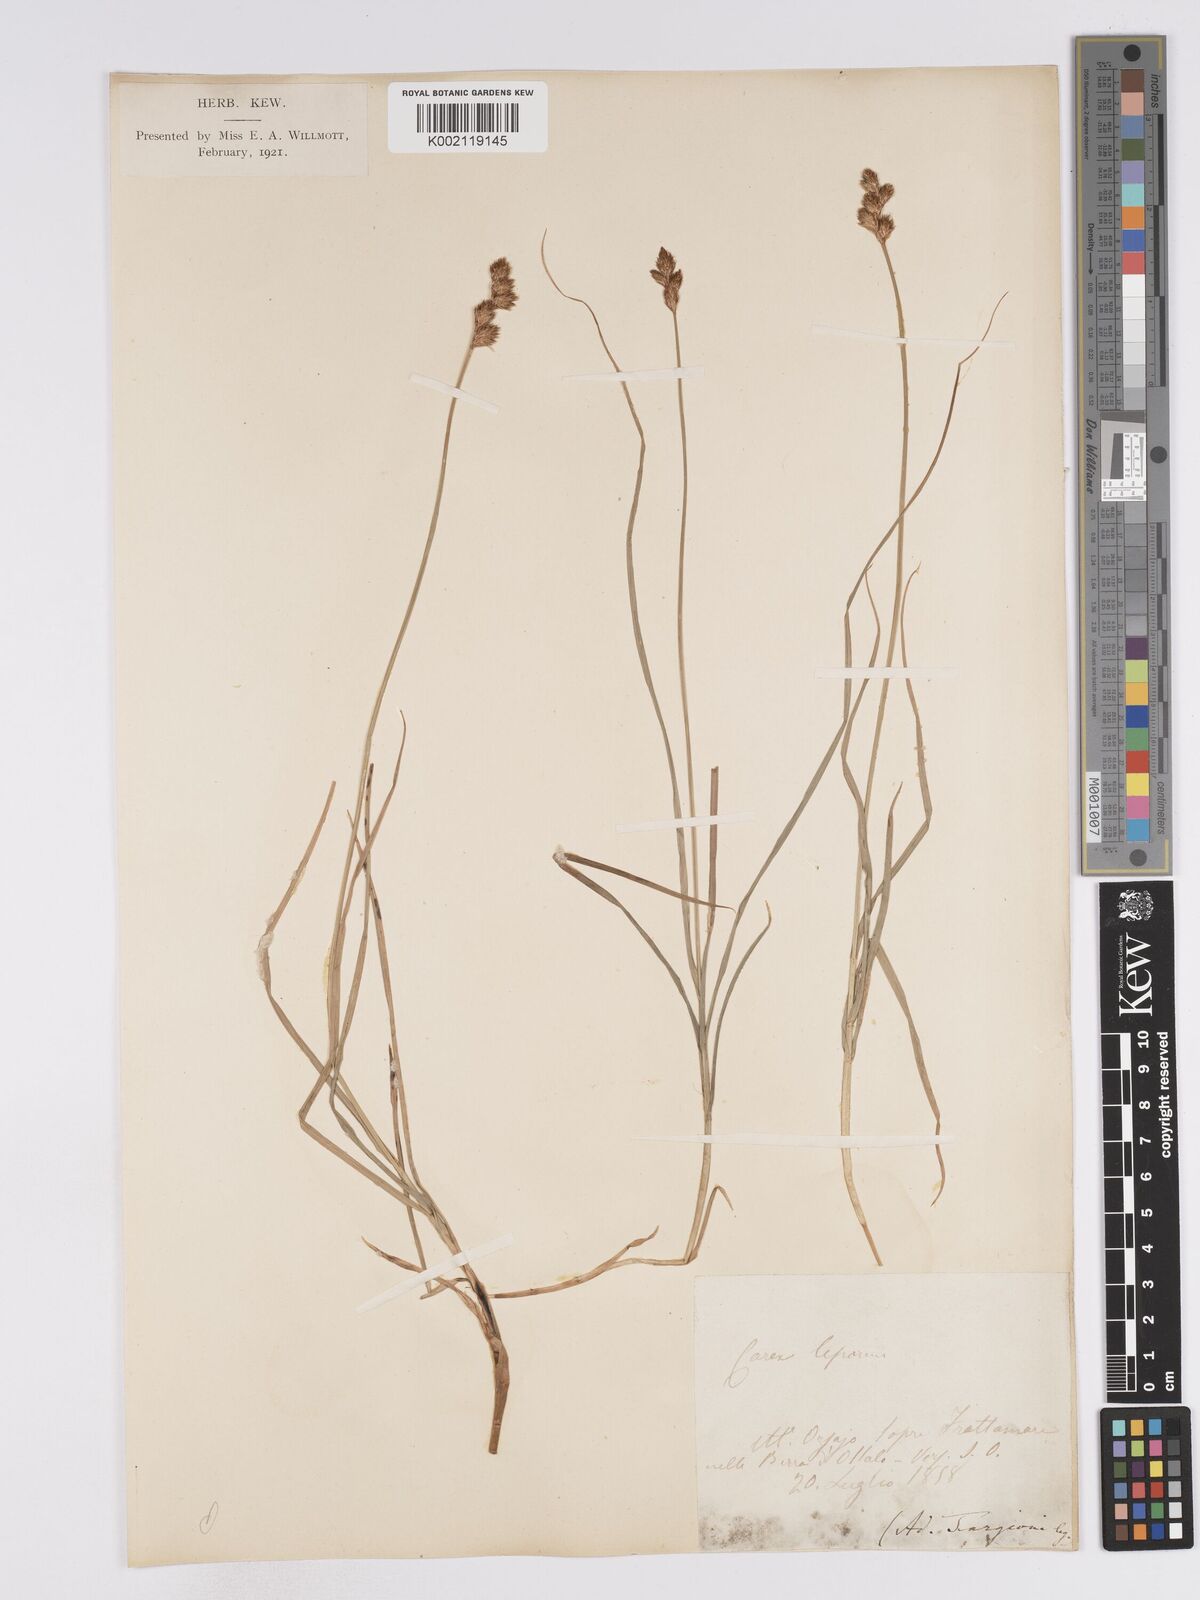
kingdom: Plantae
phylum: Tracheophyta
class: Liliopsida
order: Poales
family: Cyperaceae
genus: Carex
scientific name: Carex leporina
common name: Oval sedge
